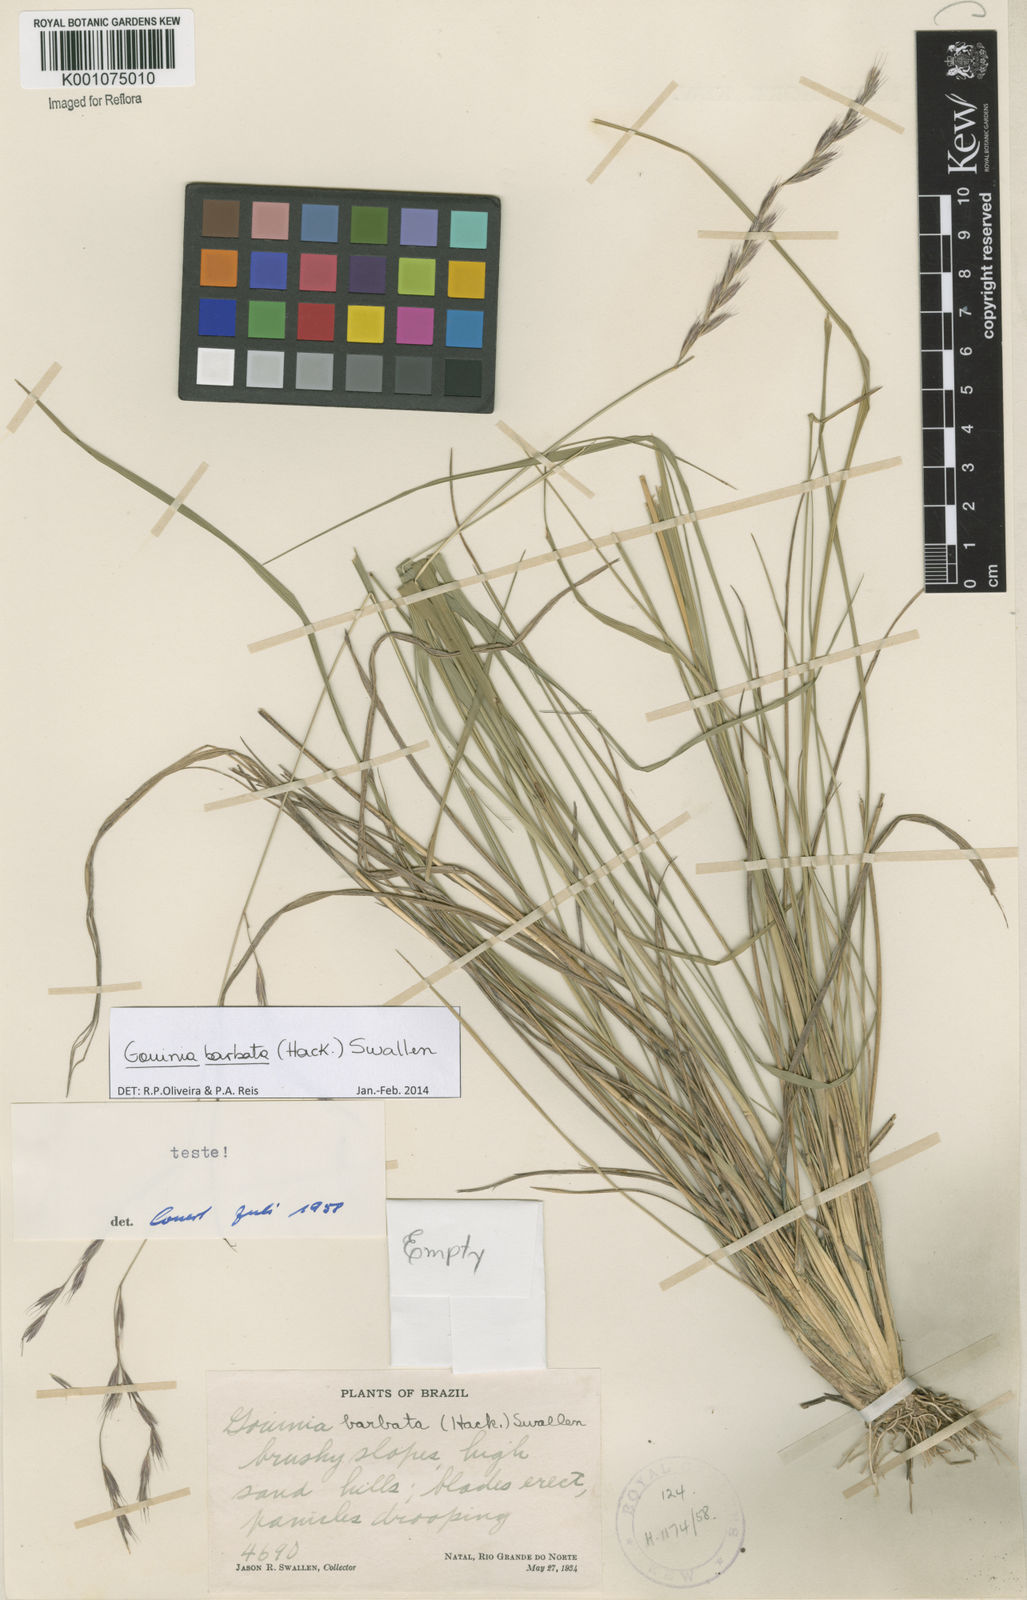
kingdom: Plantae
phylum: Tracheophyta
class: Liliopsida
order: Poales
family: Poaceae
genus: Schenckochloa
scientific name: Schenckochloa barbata
